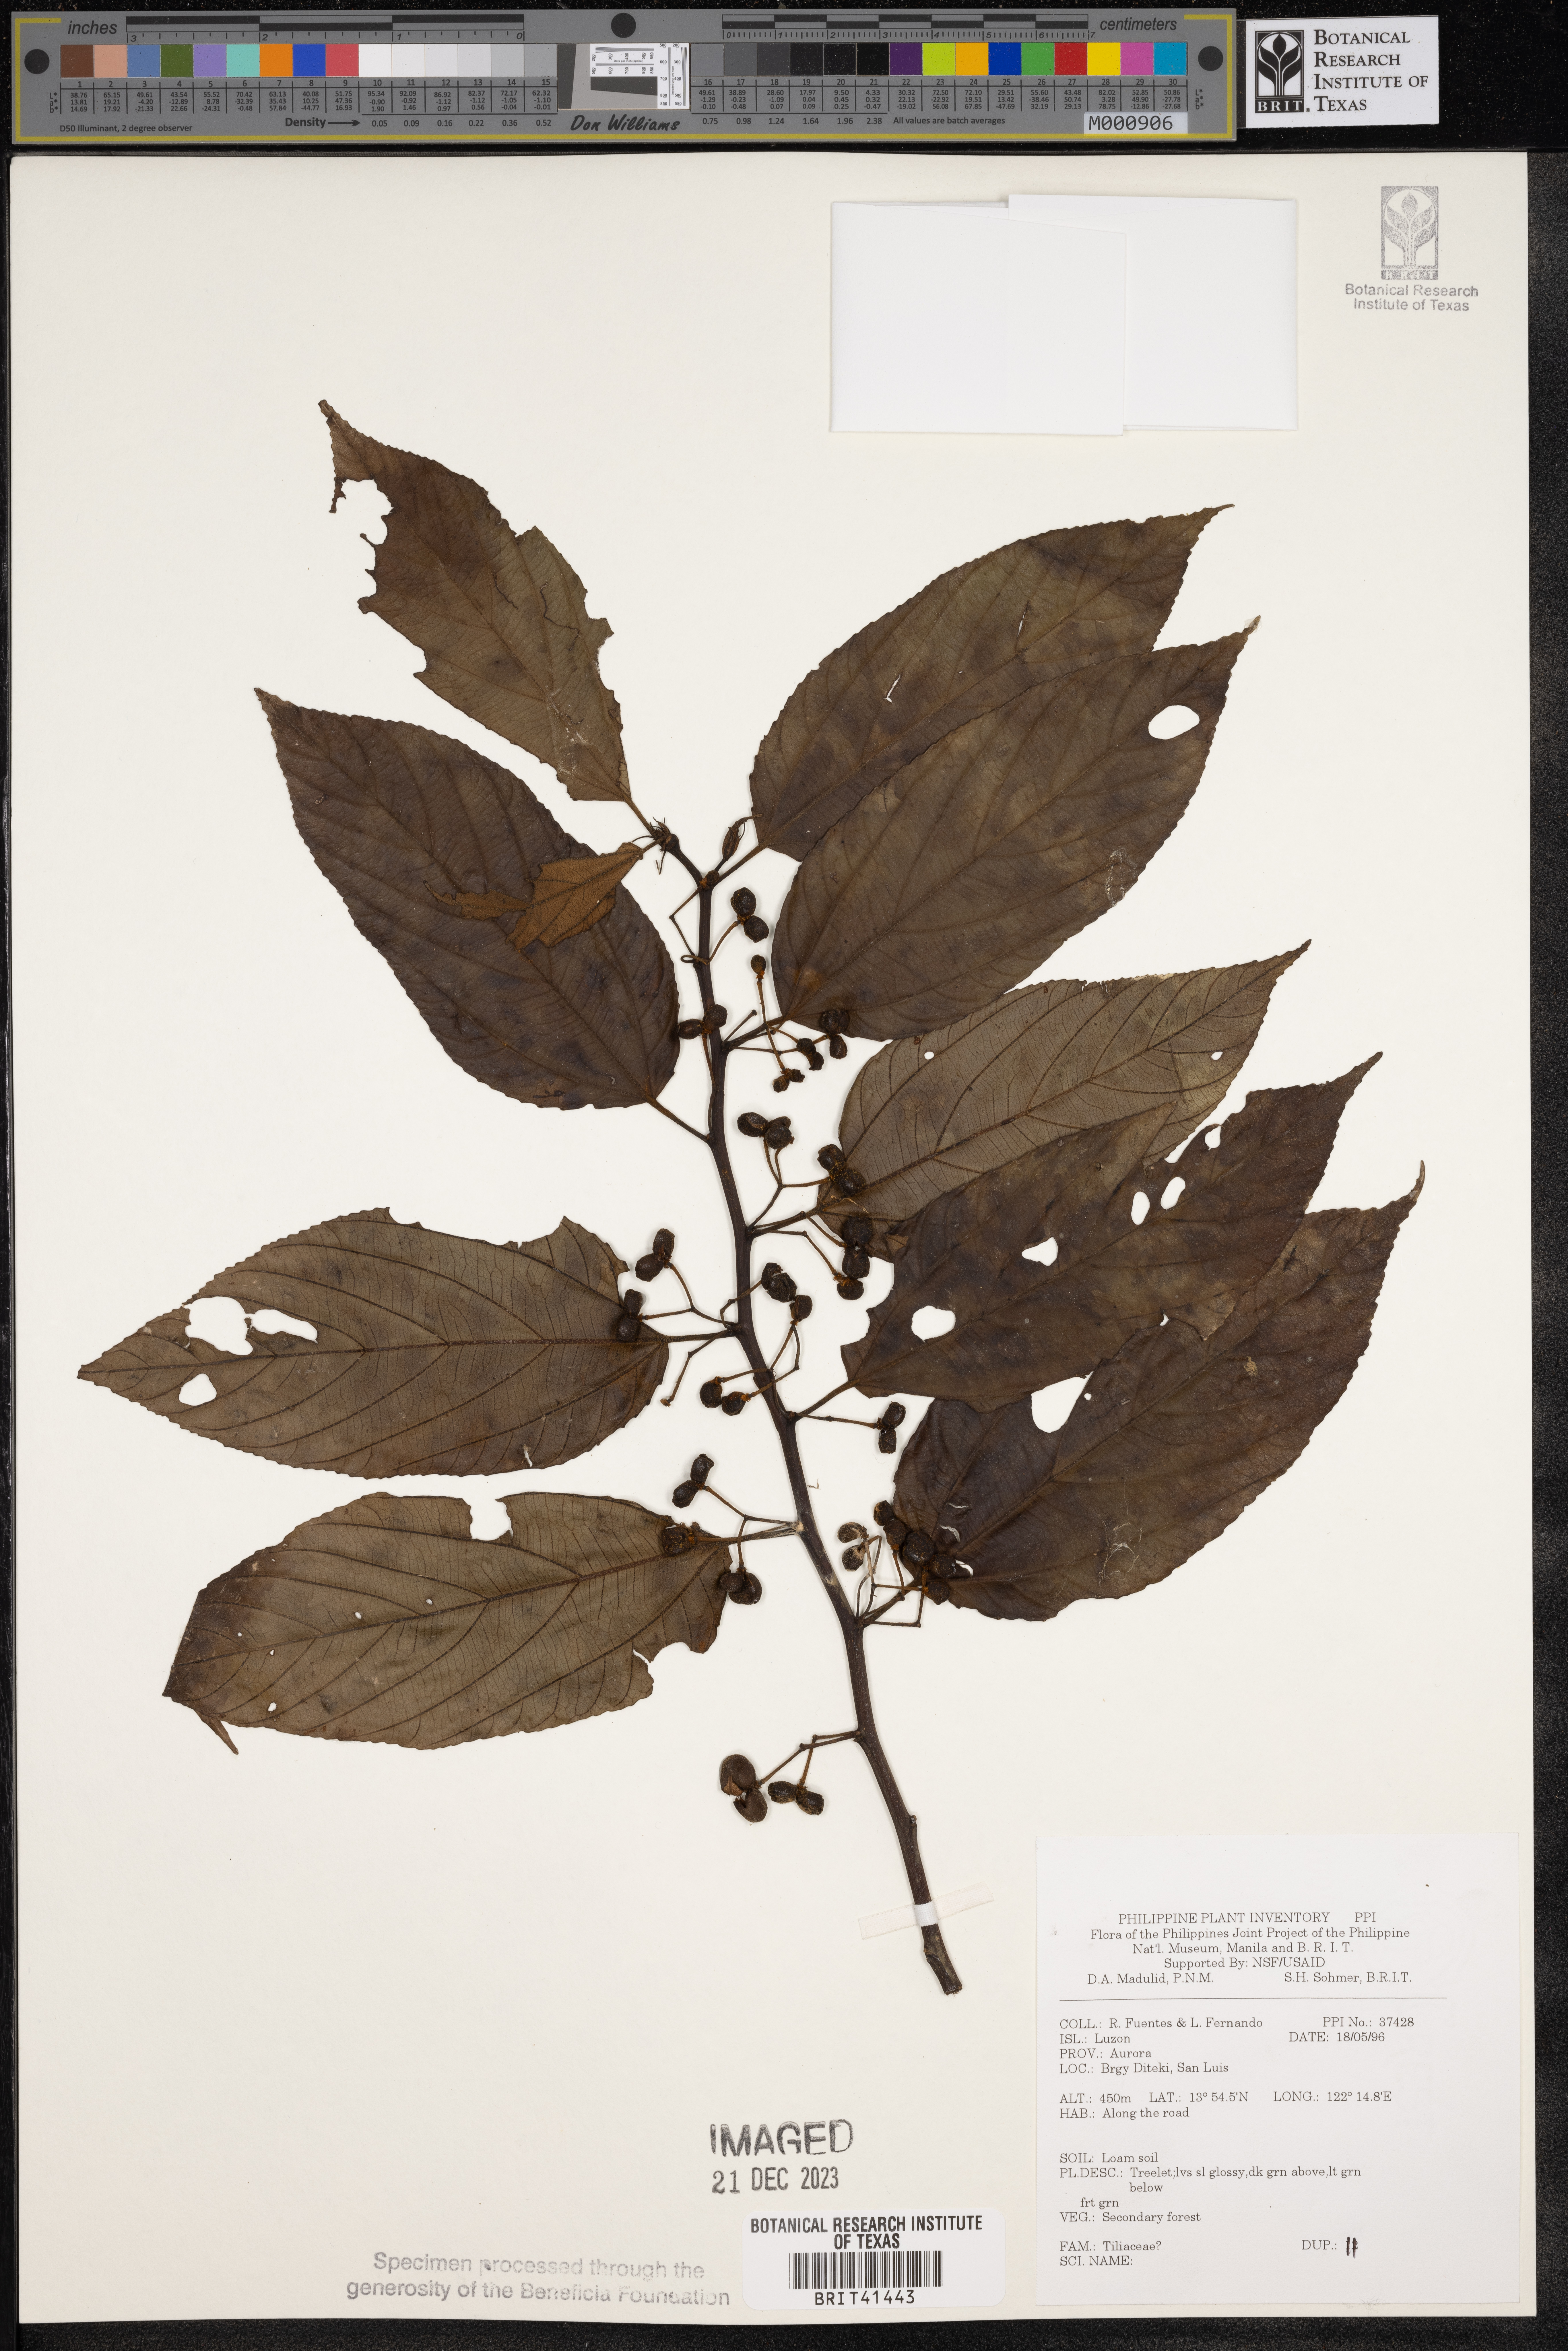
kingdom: Plantae
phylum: Tracheophyta
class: Magnoliopsida
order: Malvales
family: Tiliaceae
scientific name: Tiliaceae
